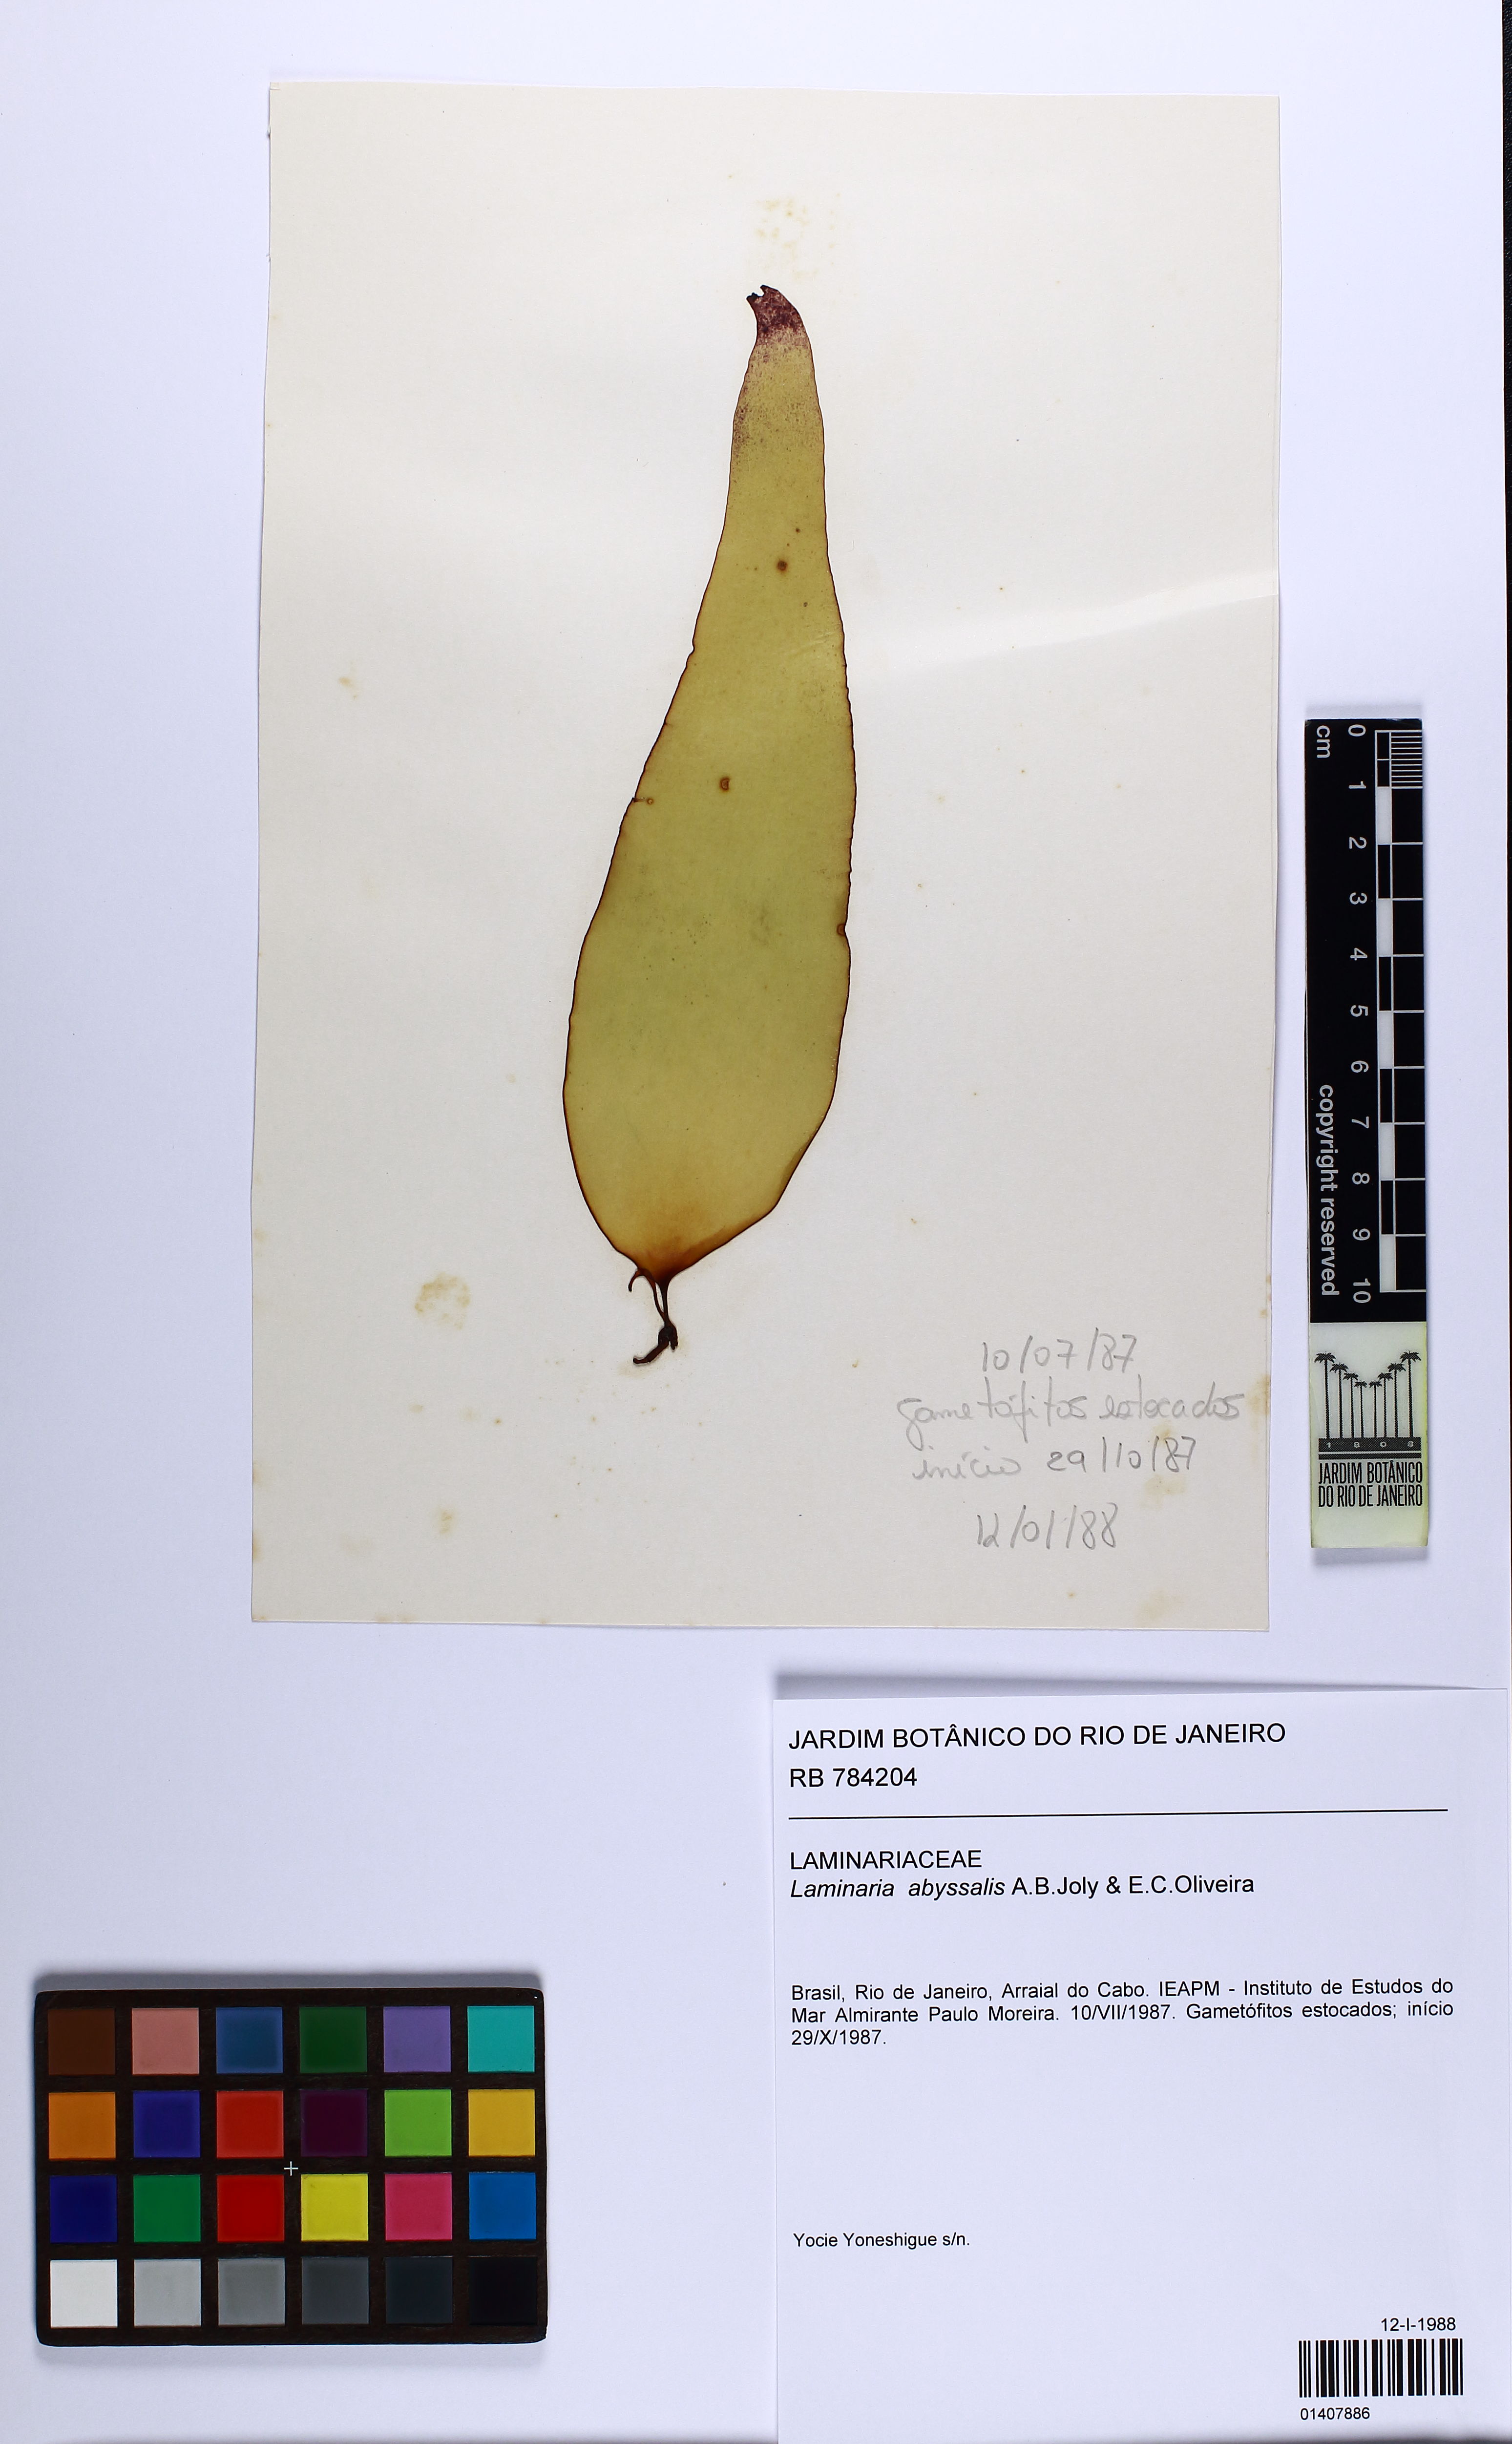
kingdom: Chromista
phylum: Ochrophyta
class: Phaeophyceae
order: Laminariales
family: Laminariaceae
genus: Laminaria
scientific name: Laminaria abyssalis
